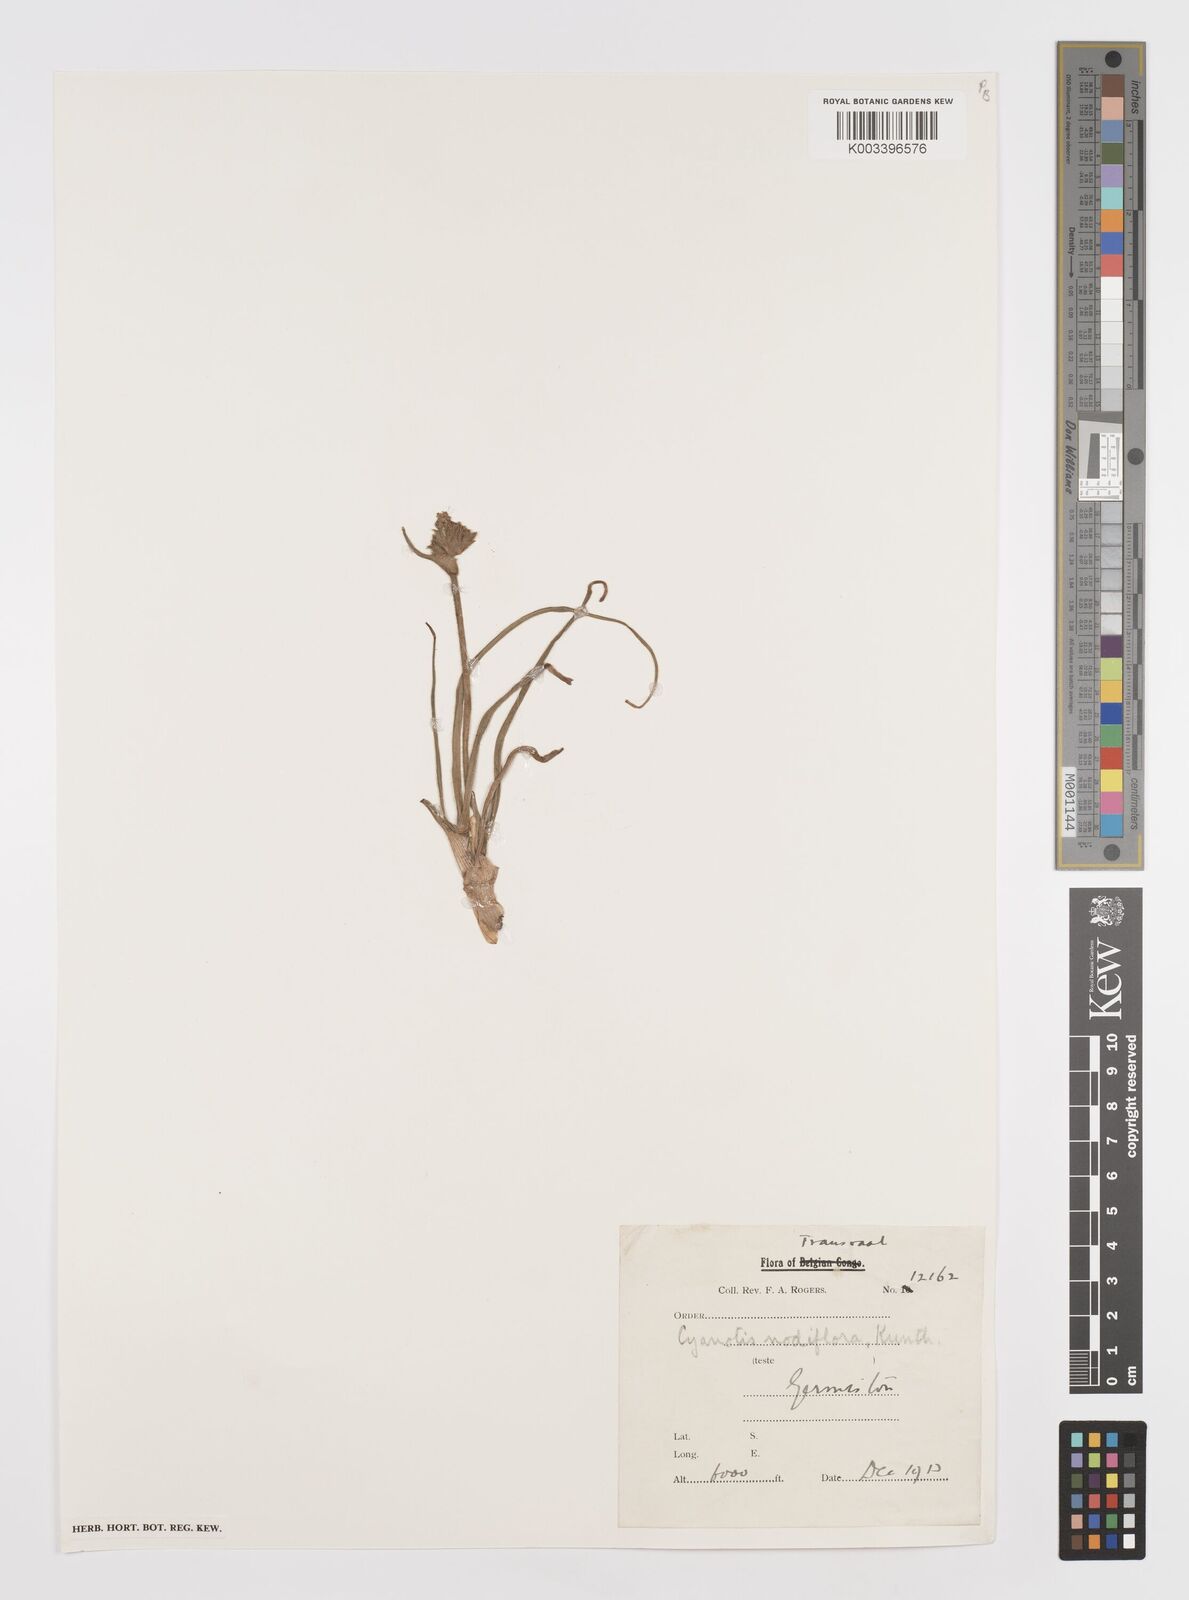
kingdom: Plantae
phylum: Tracheophyta
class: Liliopsida
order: Commelinales
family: Commelinaceae
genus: Cyanotis
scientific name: Cyanotis speciosa
